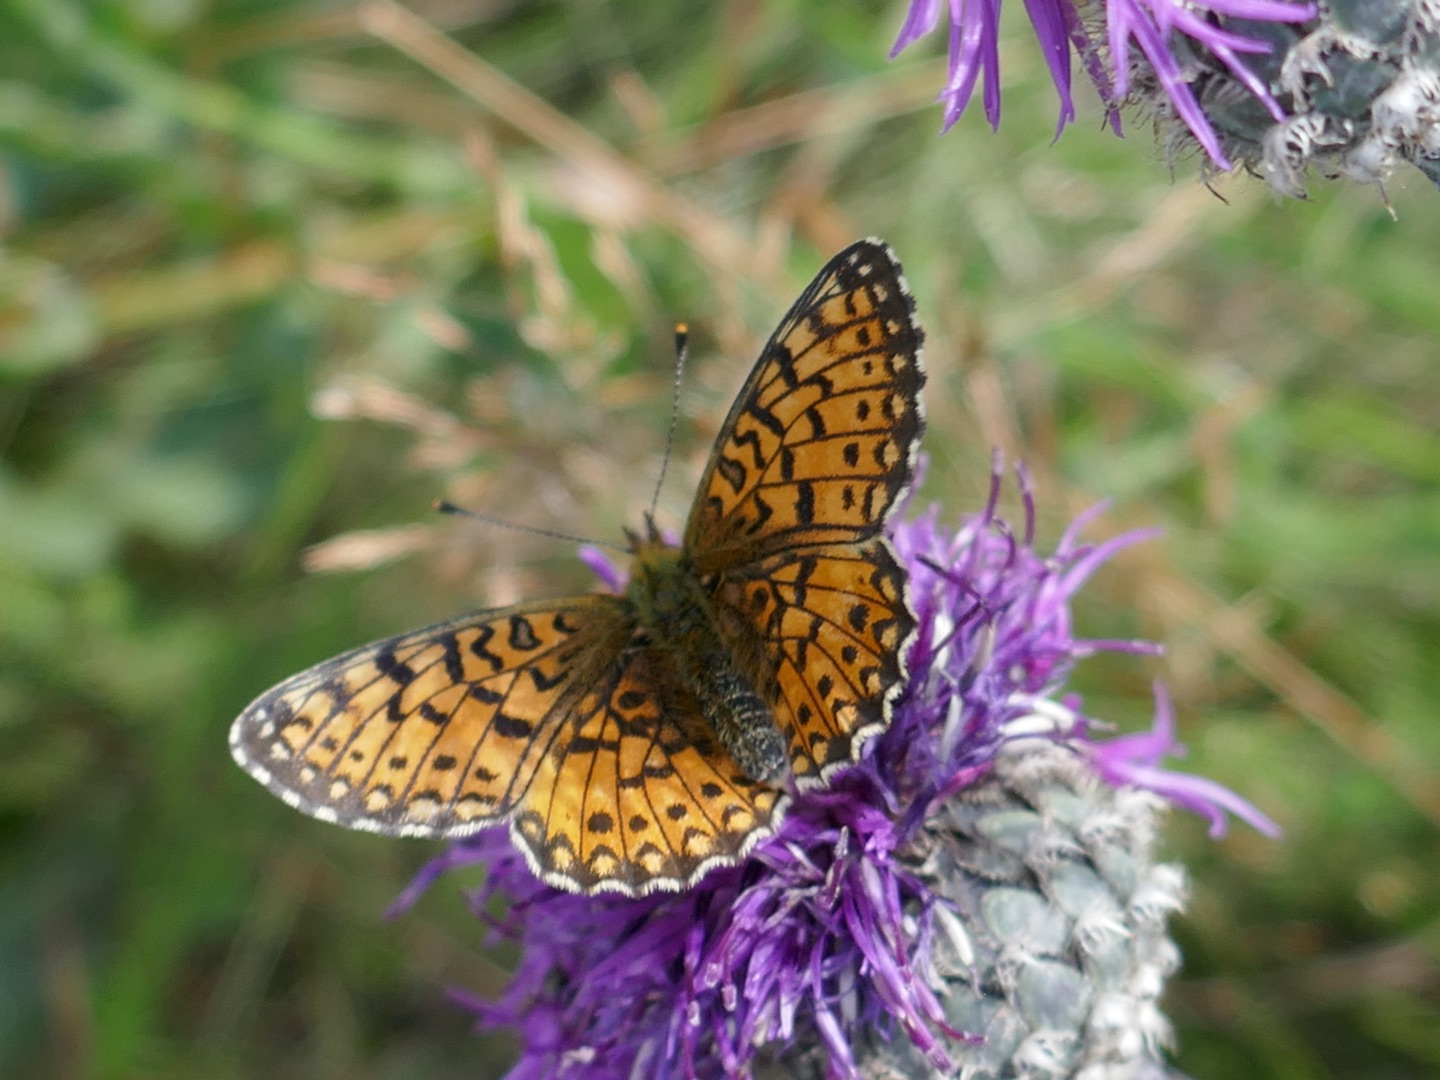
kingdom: Animalia
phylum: Arthropoda
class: Insecta
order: Lepidoptera
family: Nymphalidae
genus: Boloria
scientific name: Boloria selene
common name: Brunlig perlemorsommerfugl
